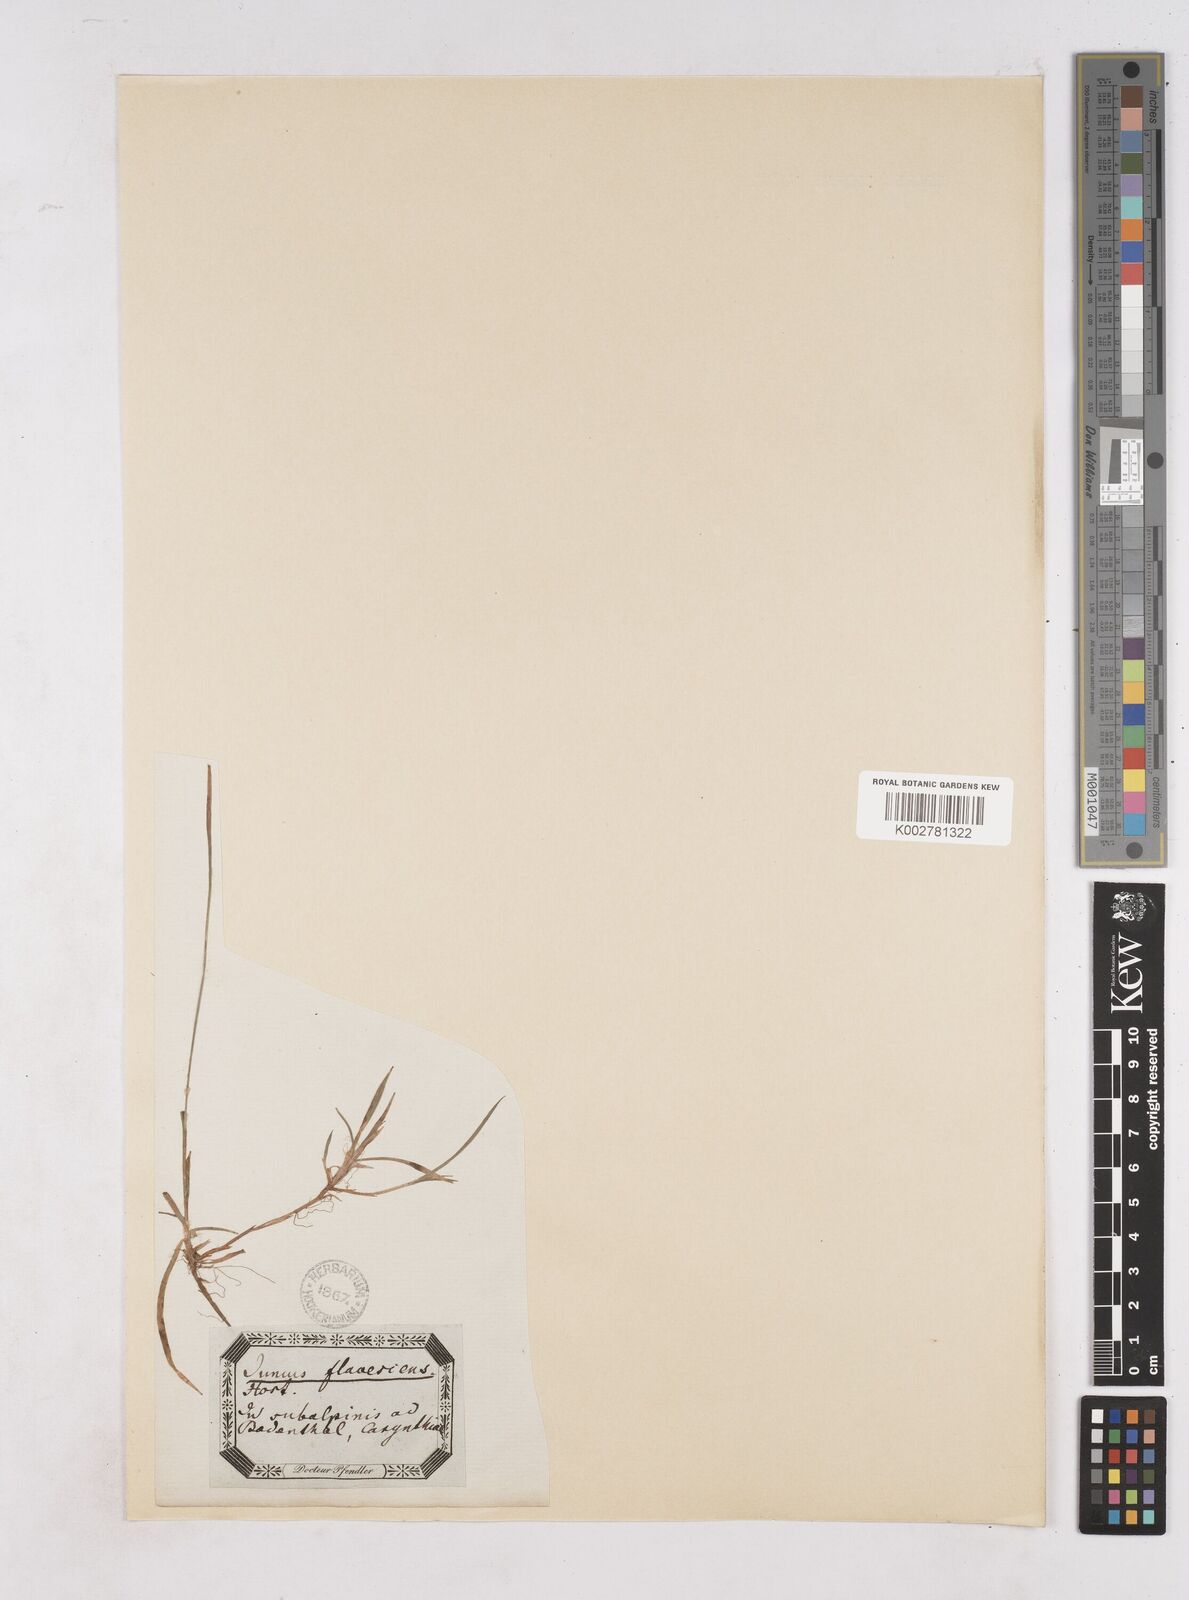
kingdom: Plantae
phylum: Tracheophyta
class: Liliopsida
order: Poales
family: Juncaceae
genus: Luzula
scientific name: Luzula luzulina
